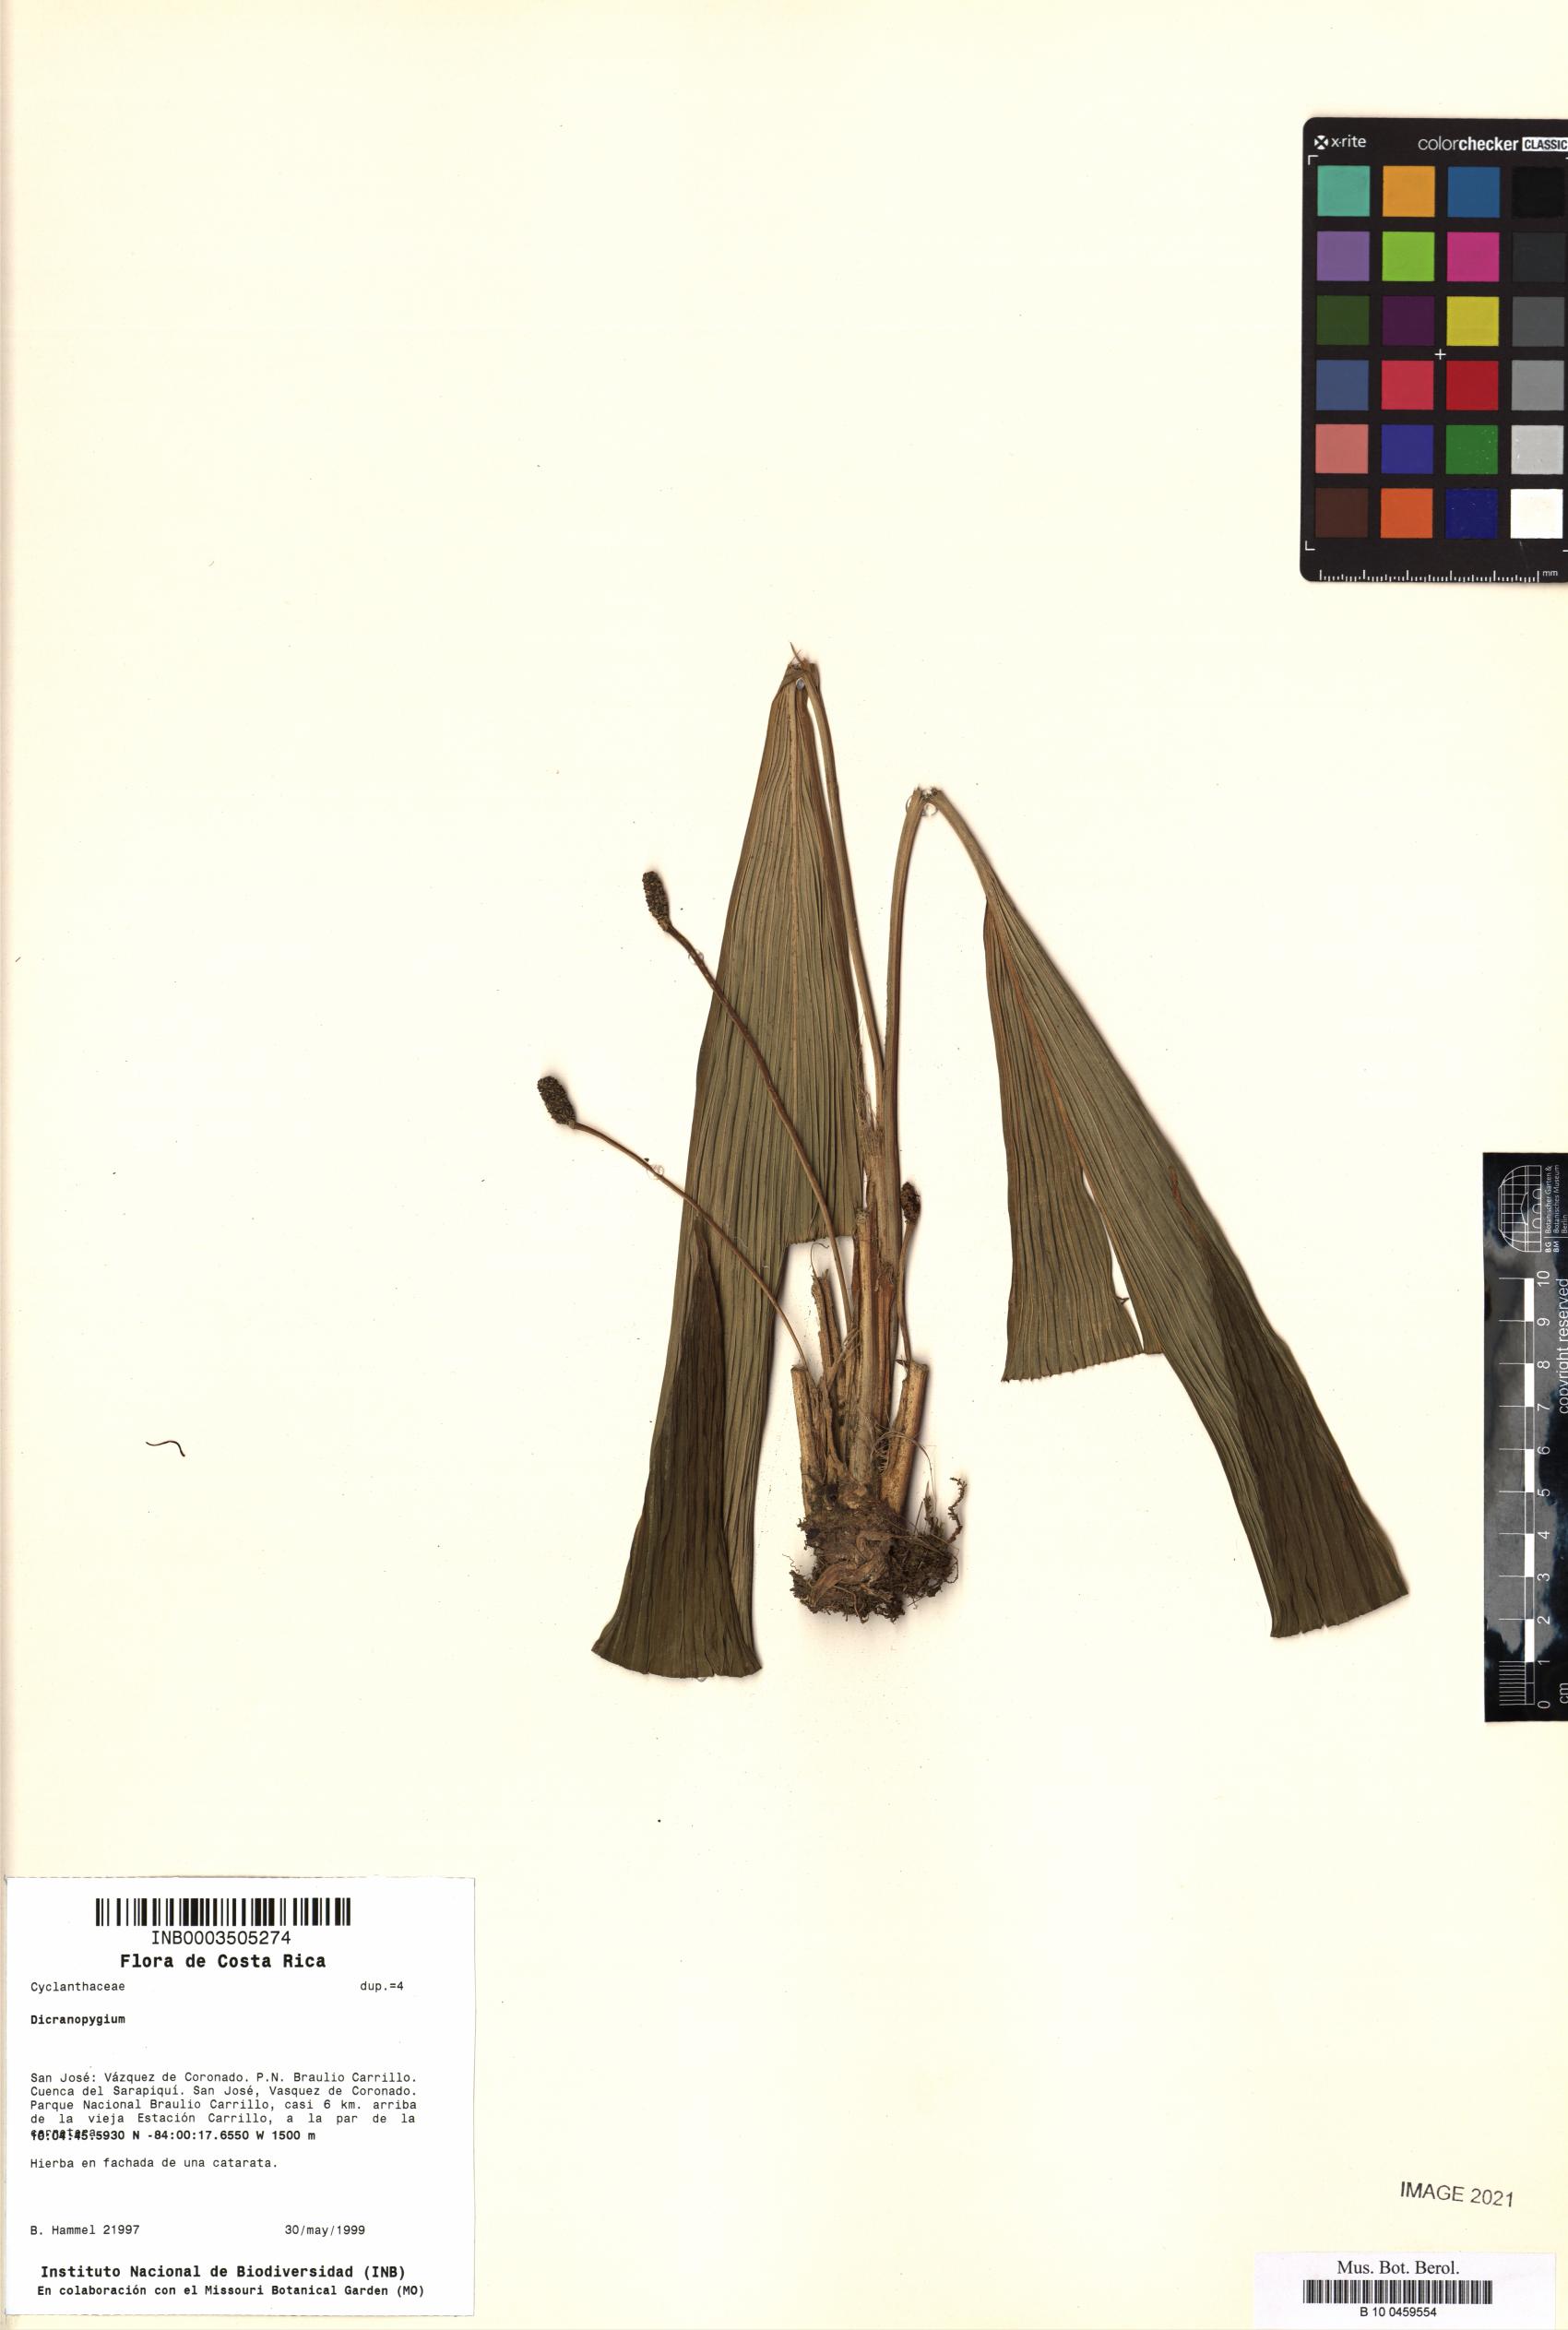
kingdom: Plantae
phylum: Tracheophyta
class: Liliopsida
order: Pandanales
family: Cyclanthaceae
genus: Dicranopygium
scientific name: Dicranopygium
